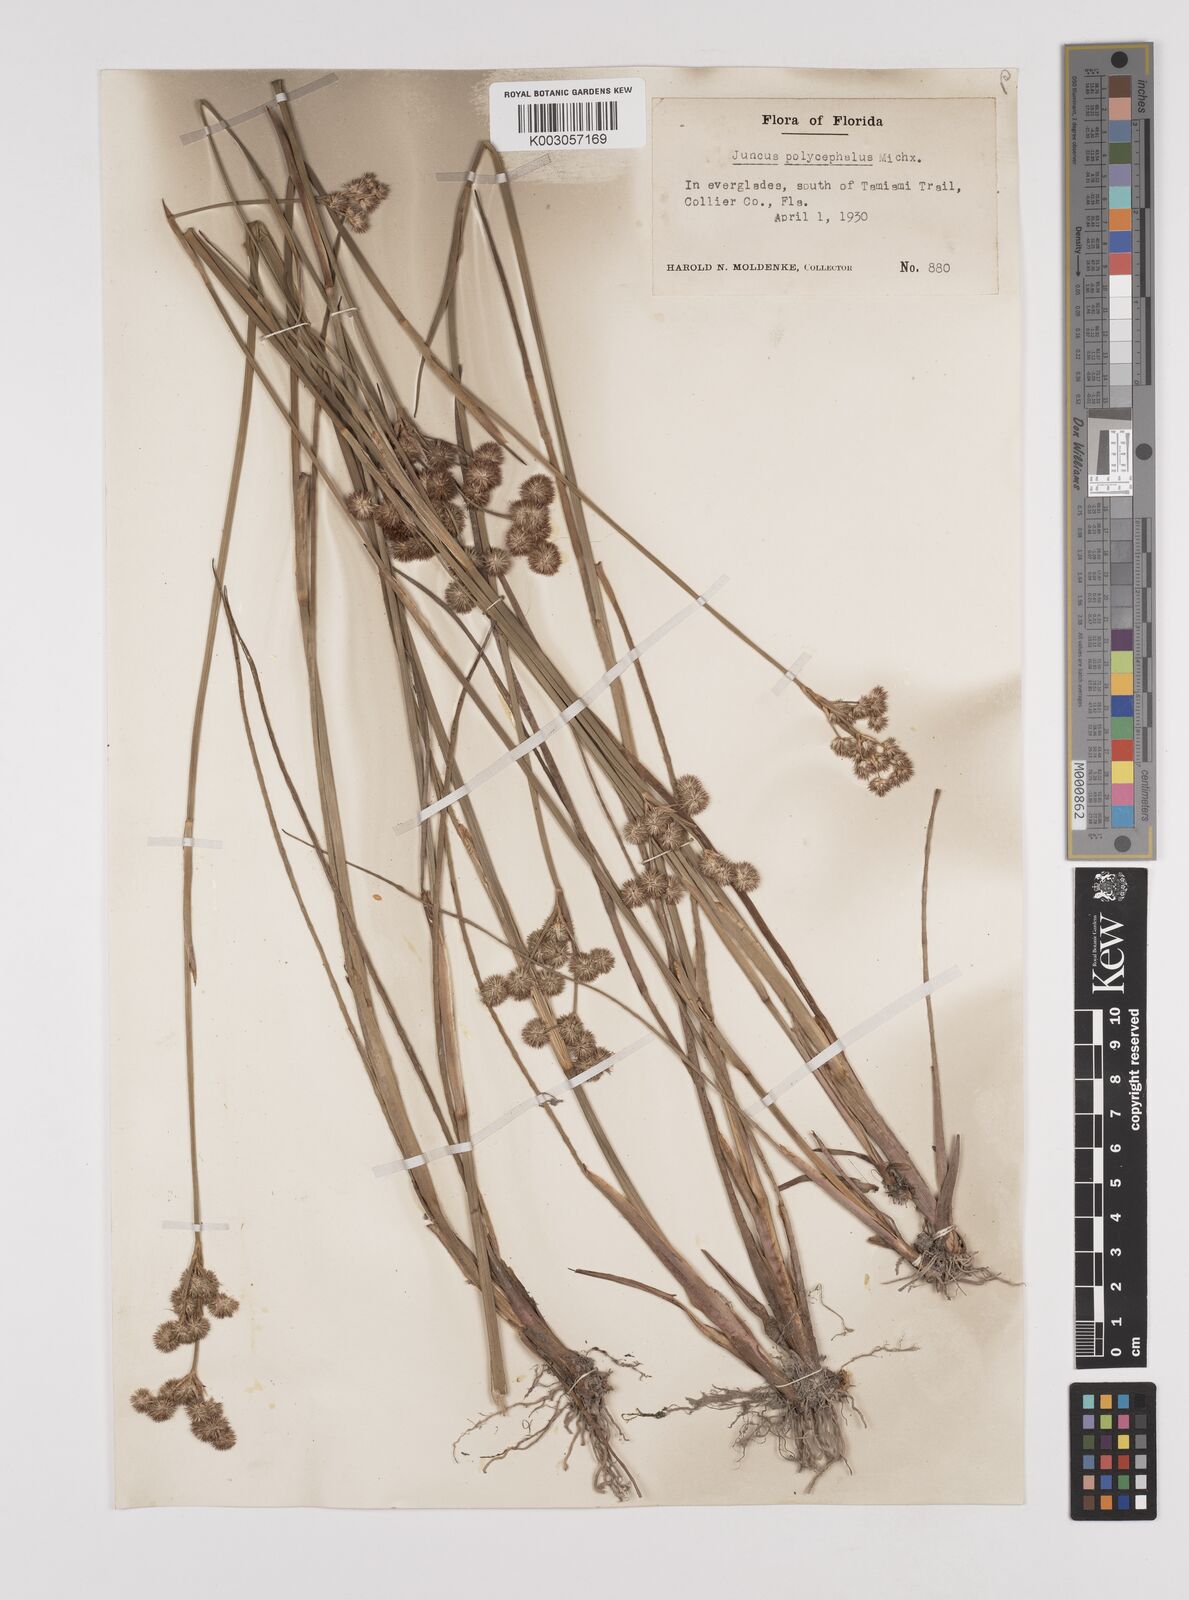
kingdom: Plantae
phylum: Tracheophyta
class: Liliopsida
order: Poales
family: Juncaceae
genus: Juncus
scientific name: Juncus articulatus
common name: Jointed rush
